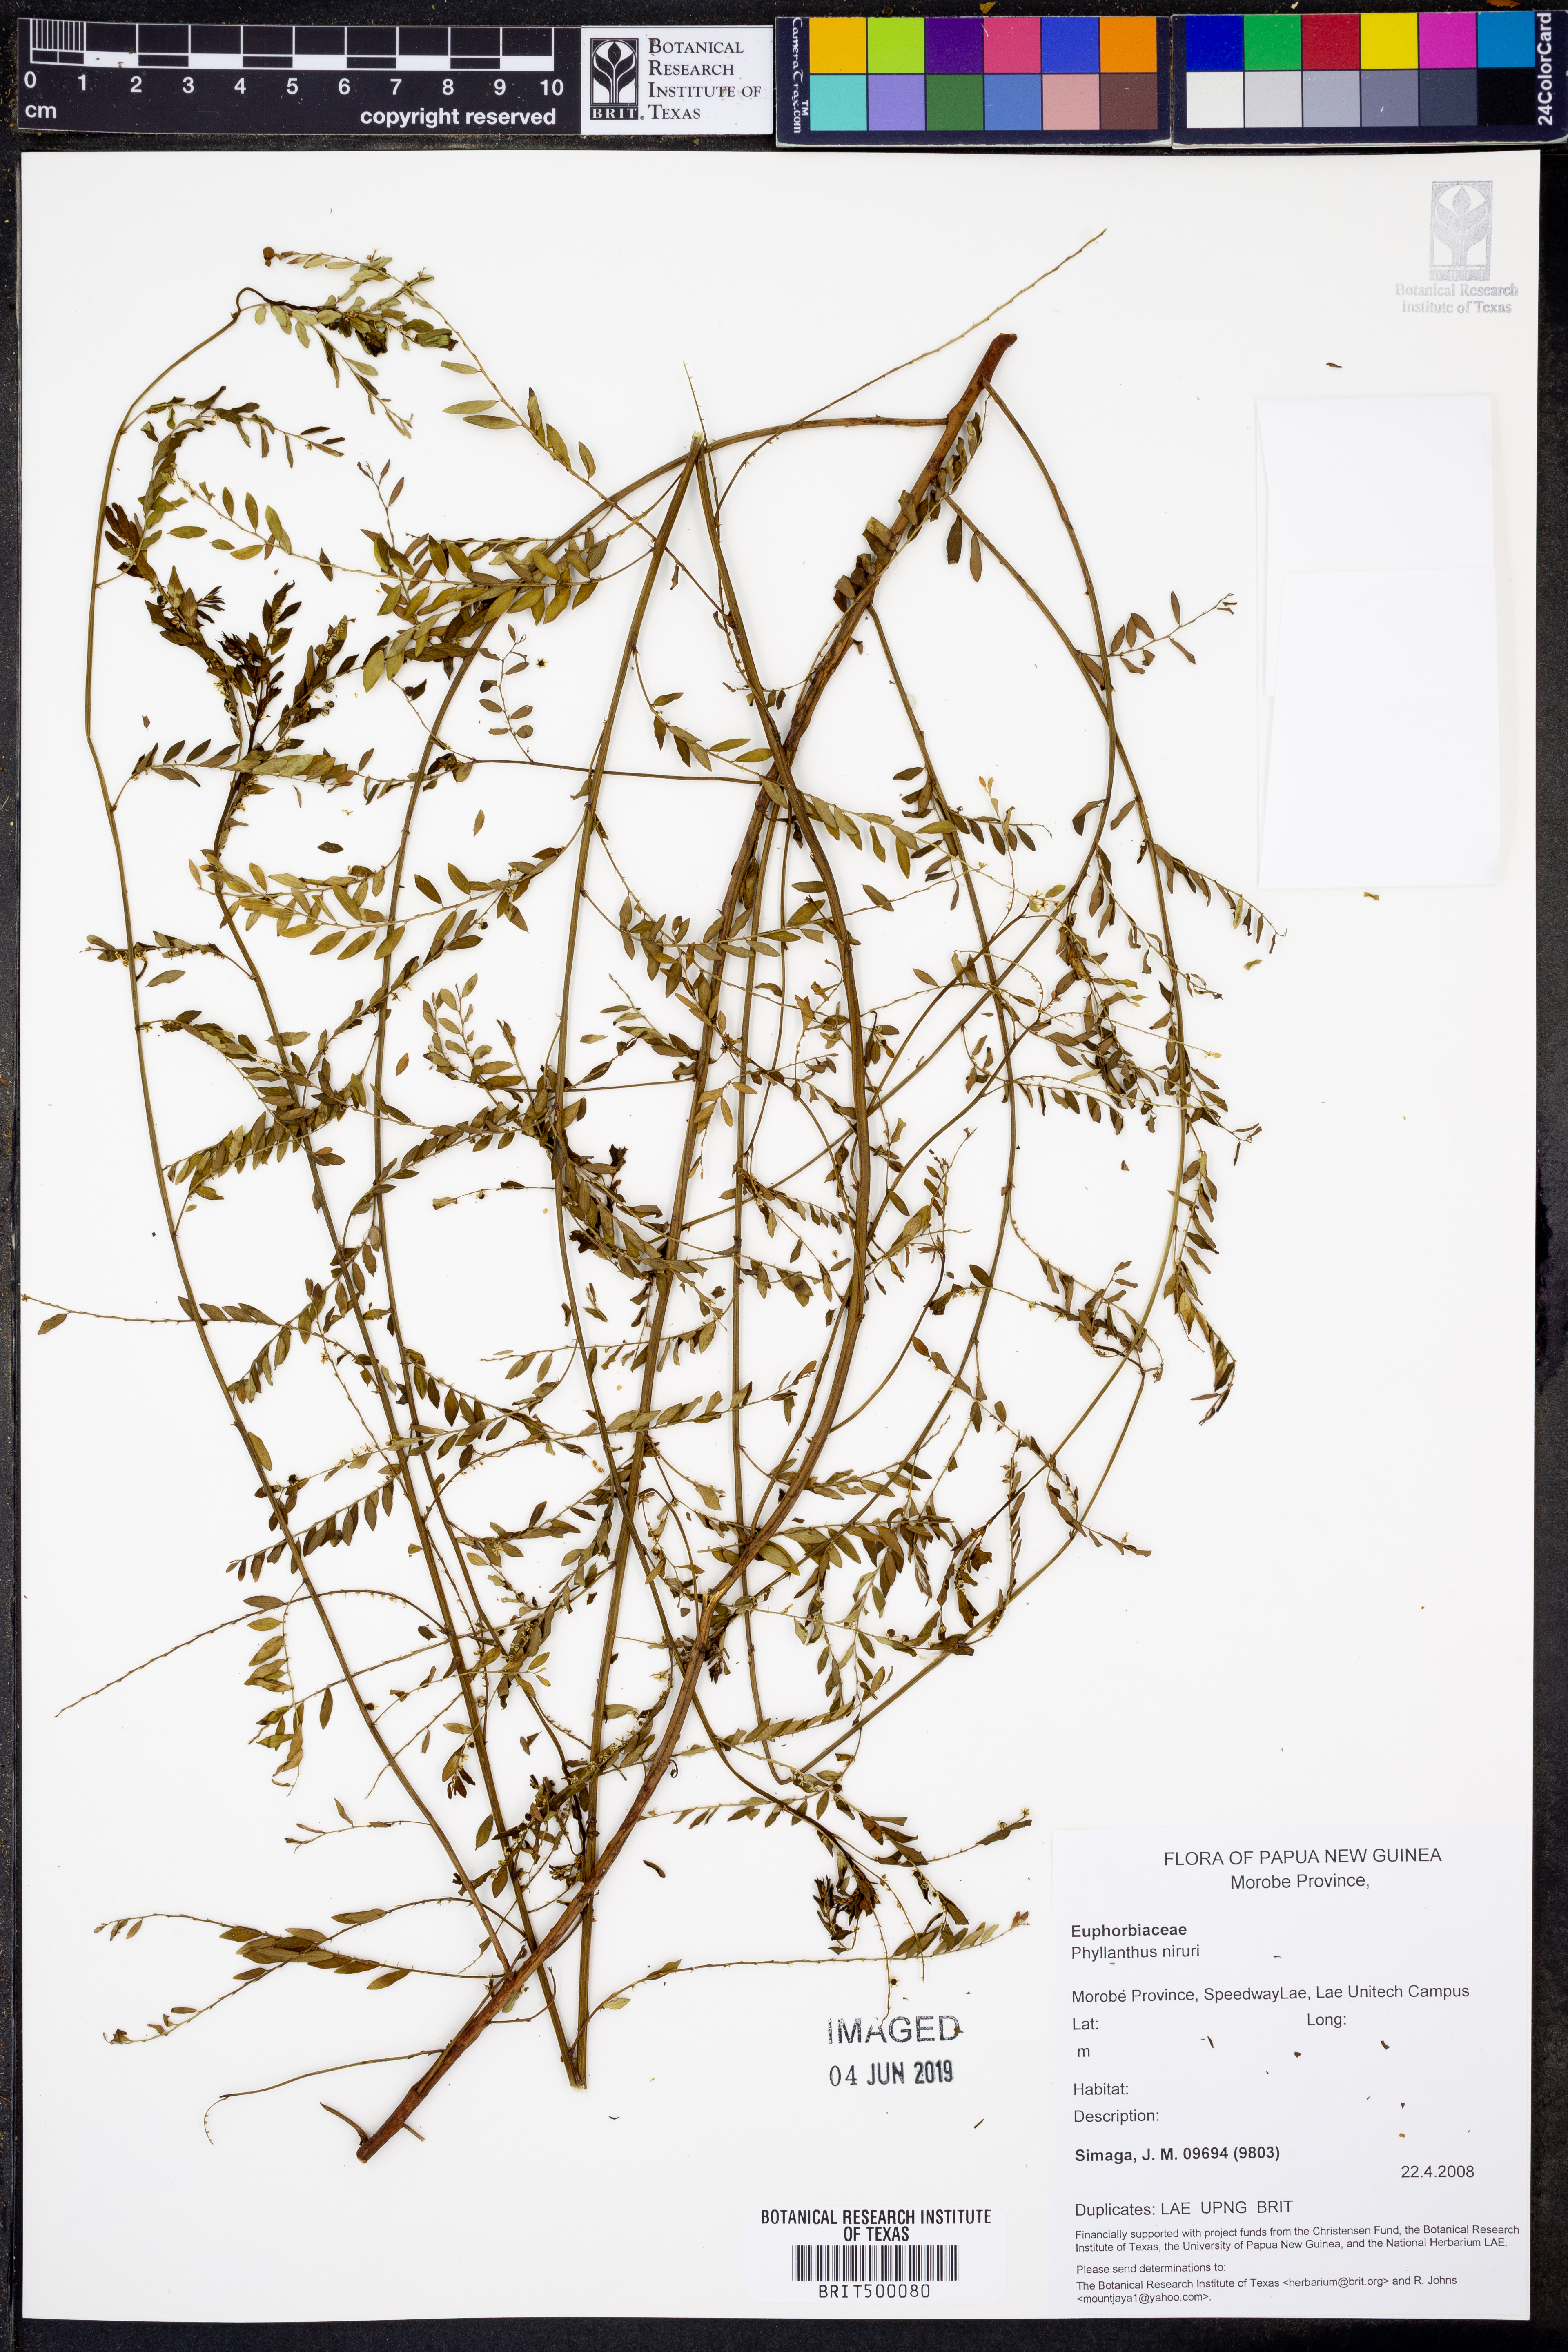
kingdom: Plantae
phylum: Tracheophyta
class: Magnoliopsida
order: Malpighiales
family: Phyllanthaceae
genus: Phyllanthus
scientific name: Phyllanthus niruri
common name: Niruri
